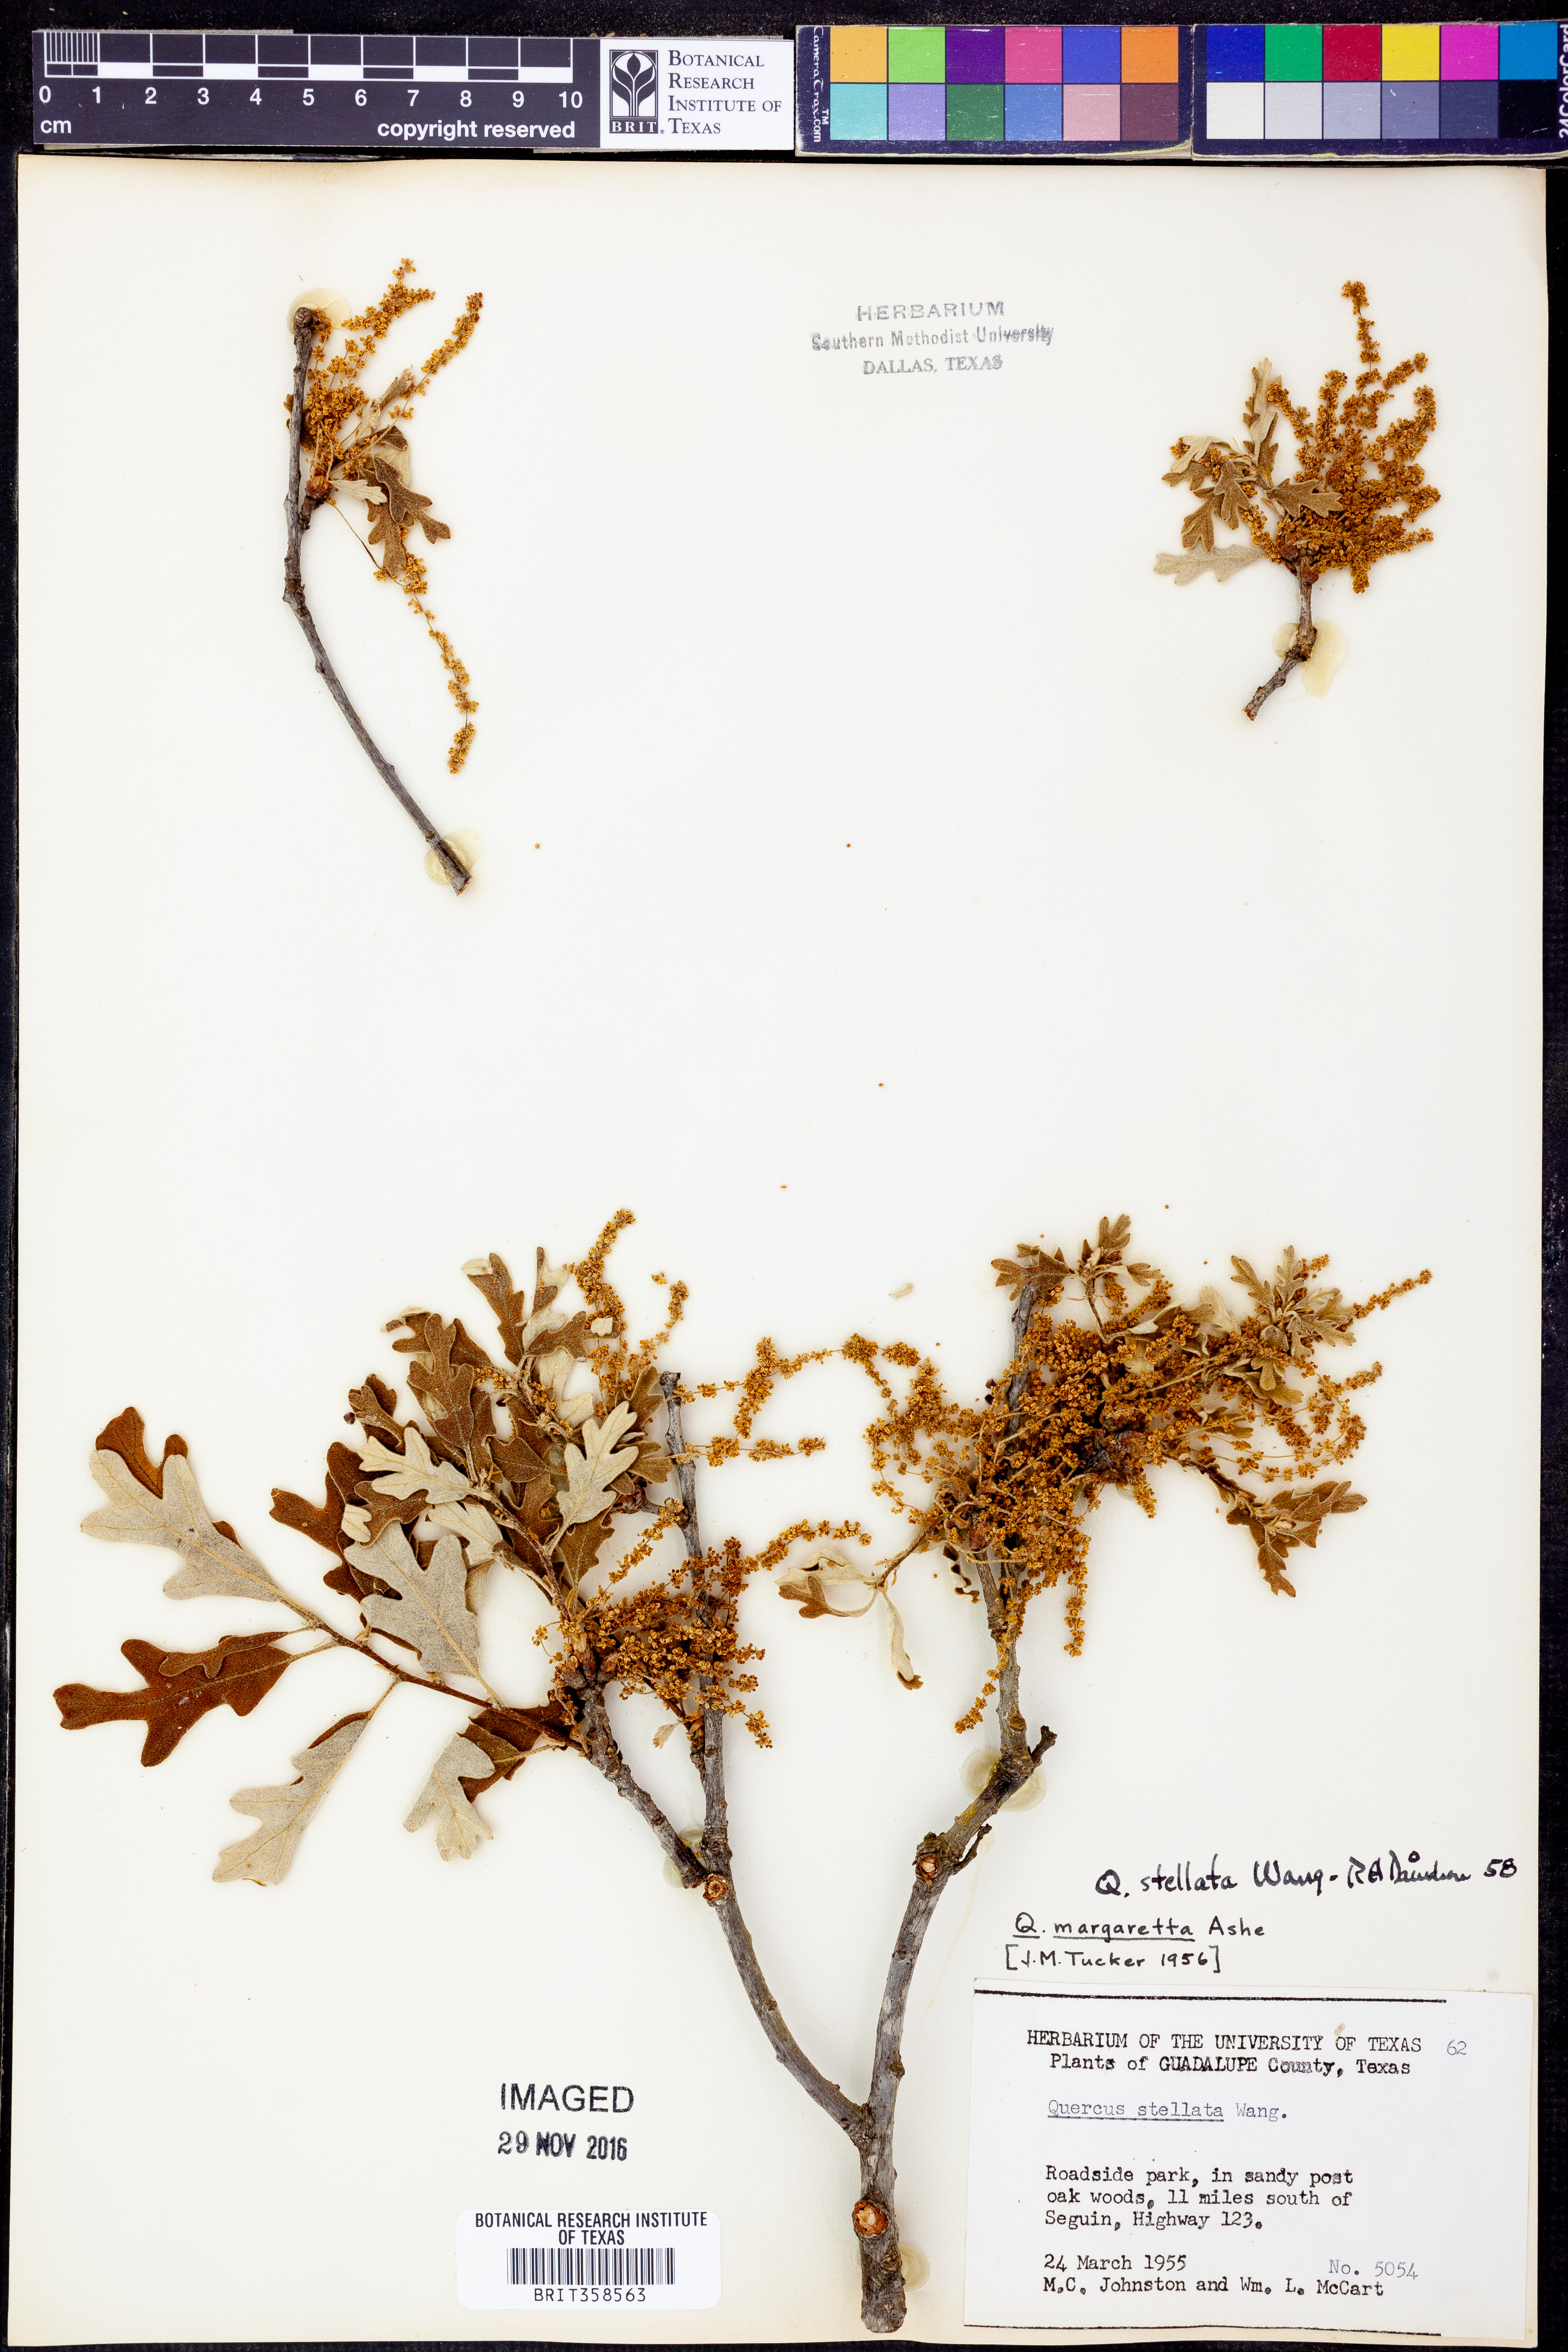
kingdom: Plantae
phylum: Tracheophyta
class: Magnoliopsida
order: Fagales
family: Fagaceae
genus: Quercus
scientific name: Quercus stellata
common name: Post oak
